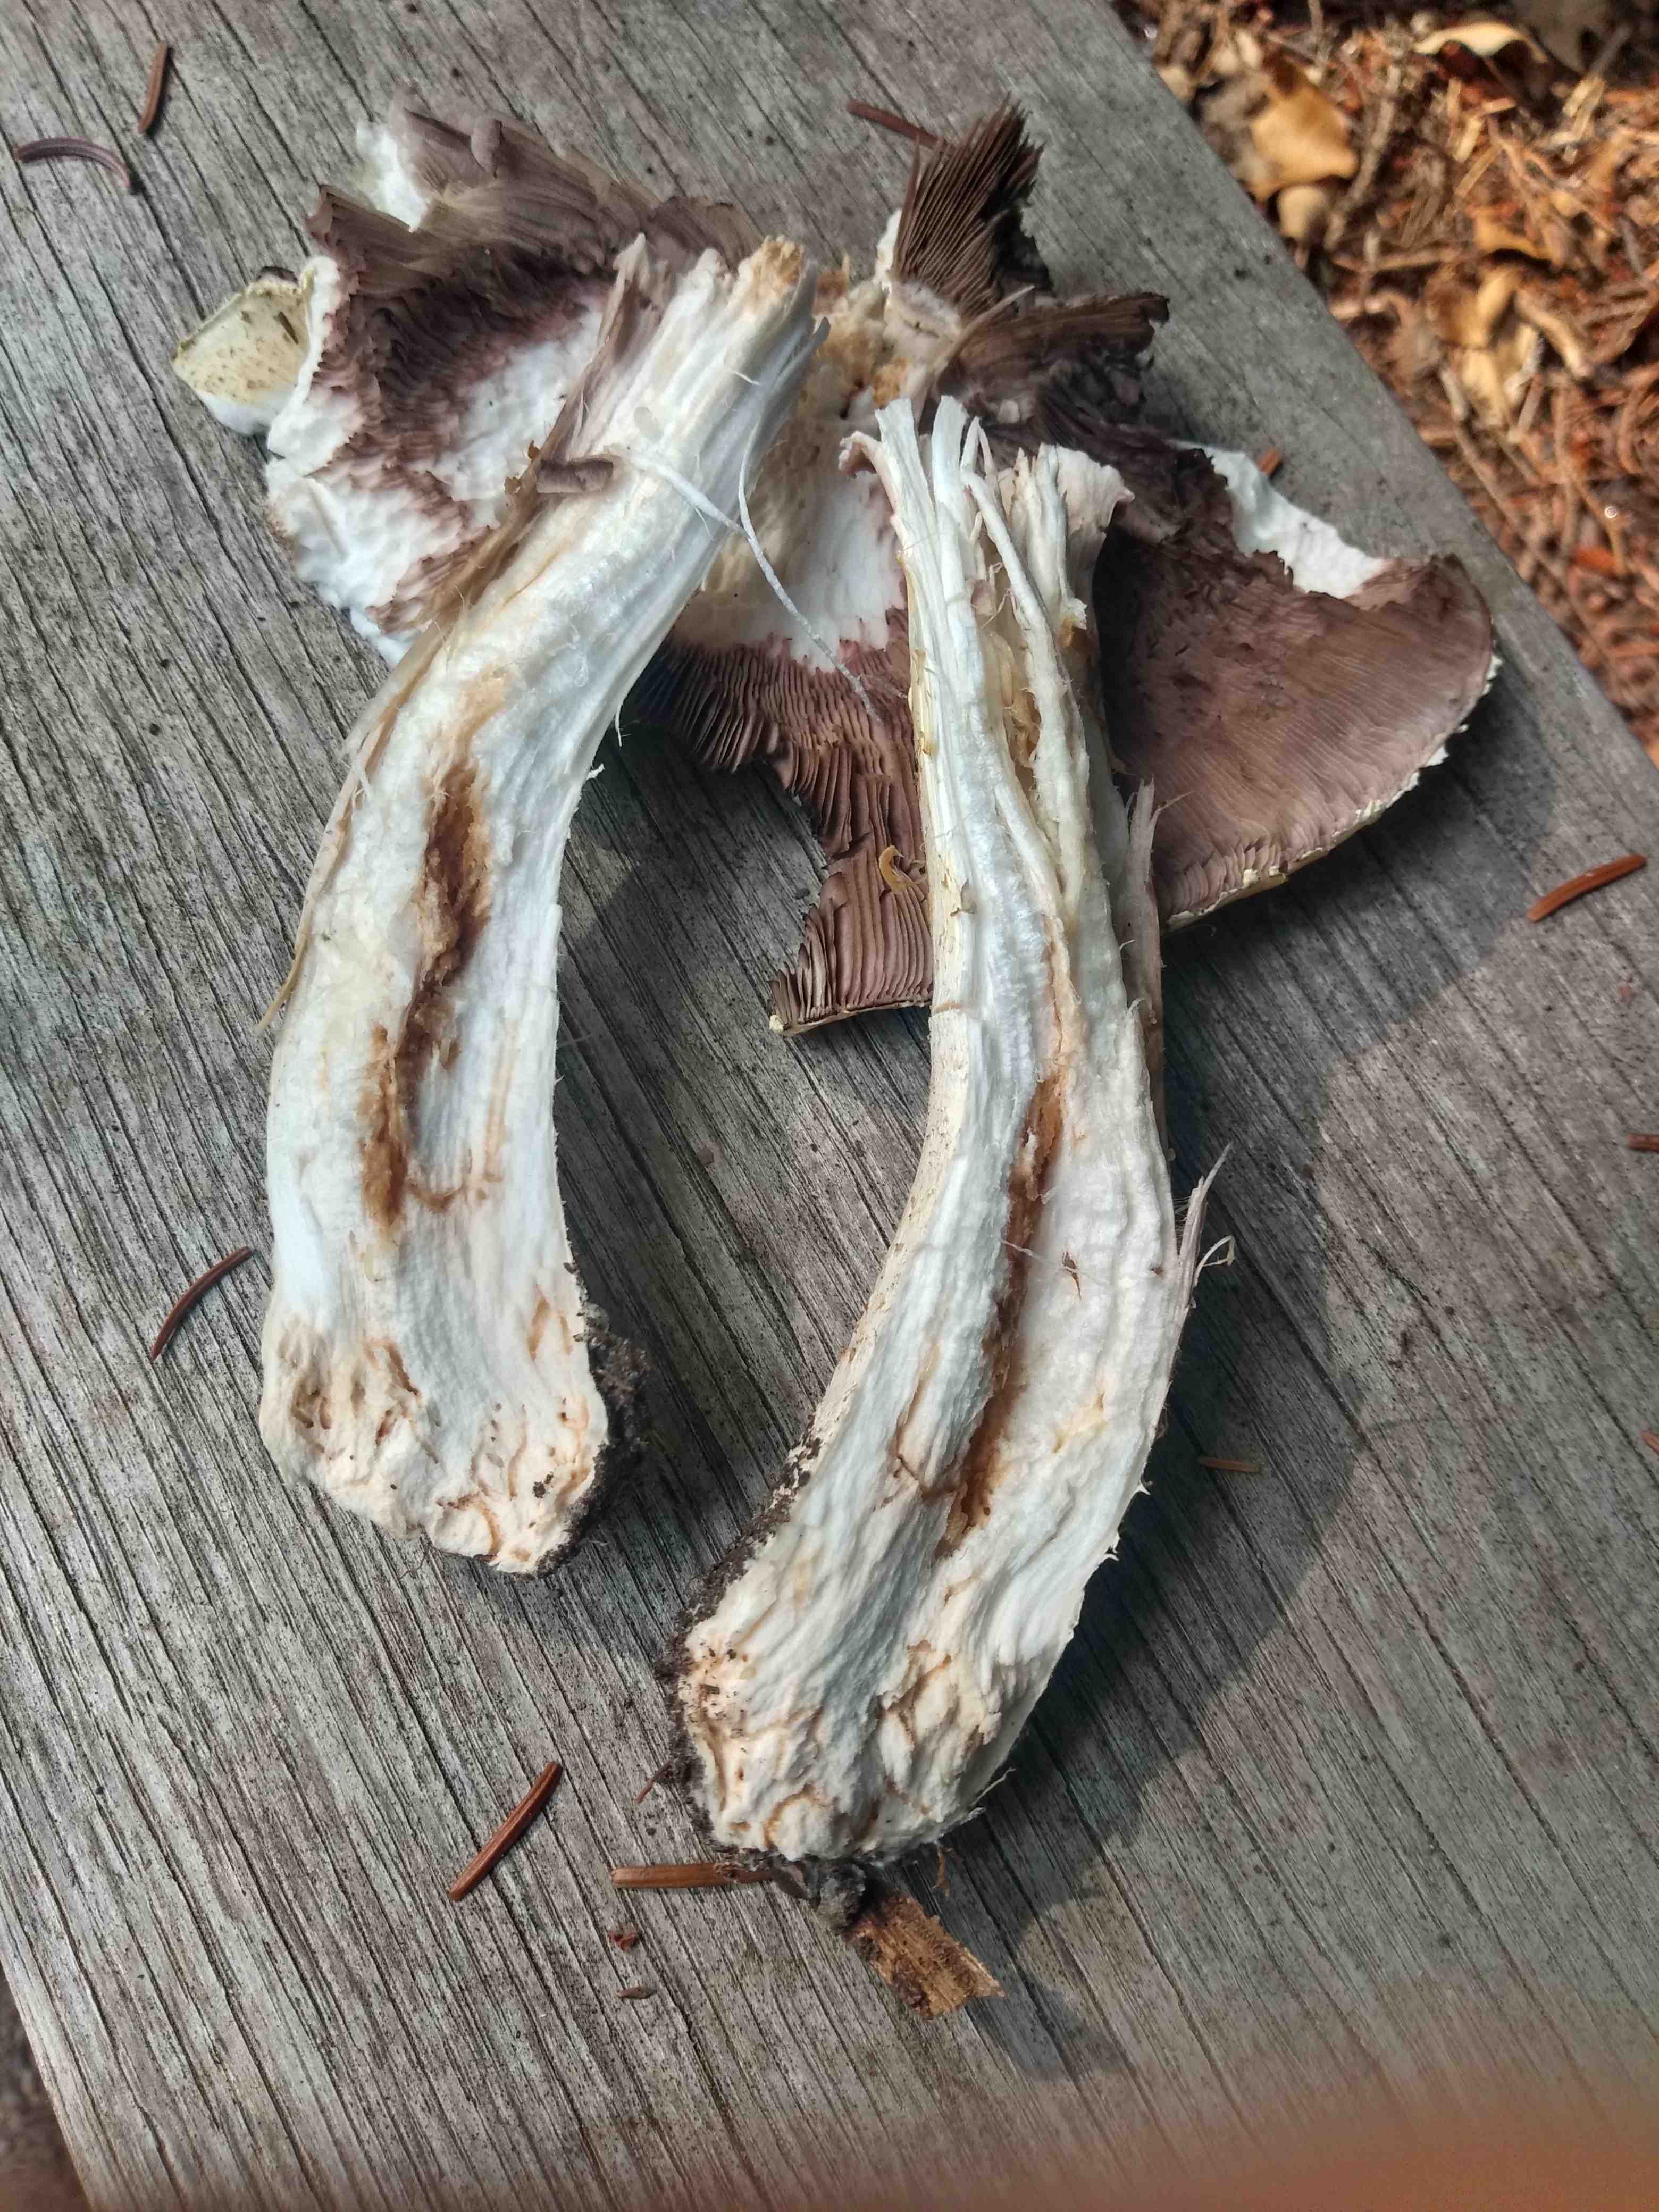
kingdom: Fungi
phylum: Basidiomycota
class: Agaricomycetes
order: Agaricales
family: Agaricaceae
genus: Agaricus
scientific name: Agaricus
